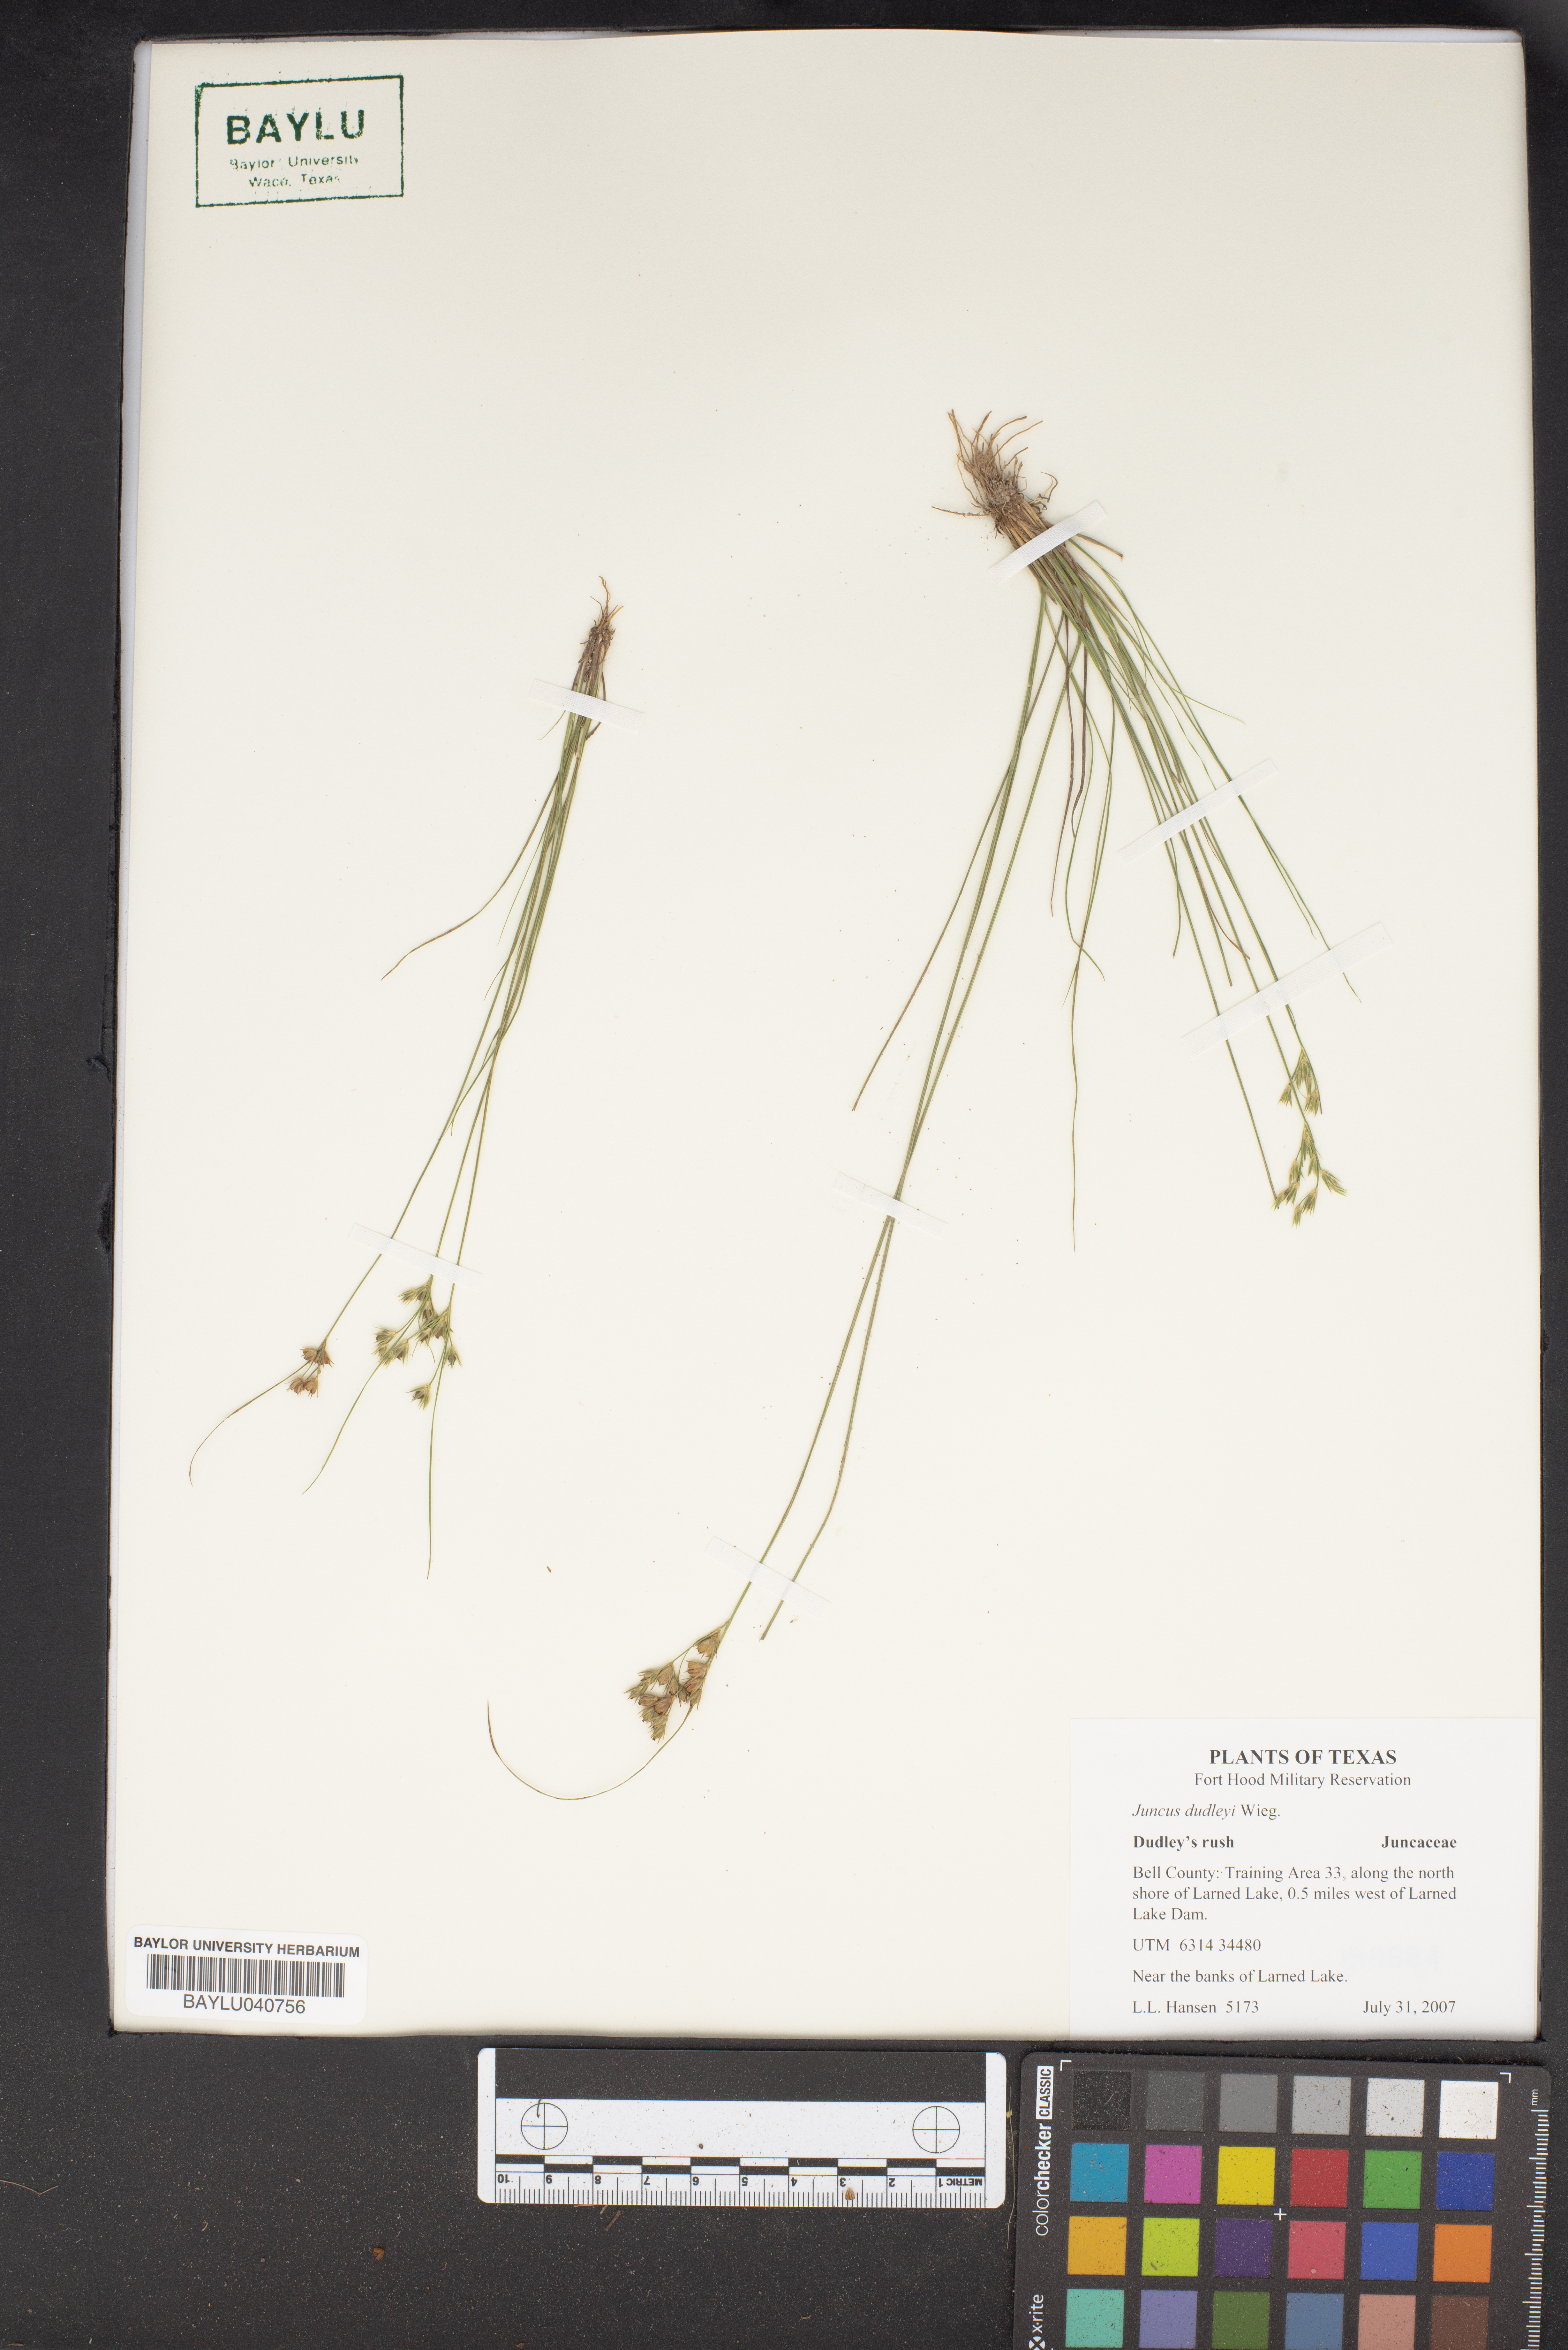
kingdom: Plantae
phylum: Tracheophyta
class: Liliopsida
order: Poales
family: Juncaceae
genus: Juncus
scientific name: Juncus dudleyi
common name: Dudley's rush
